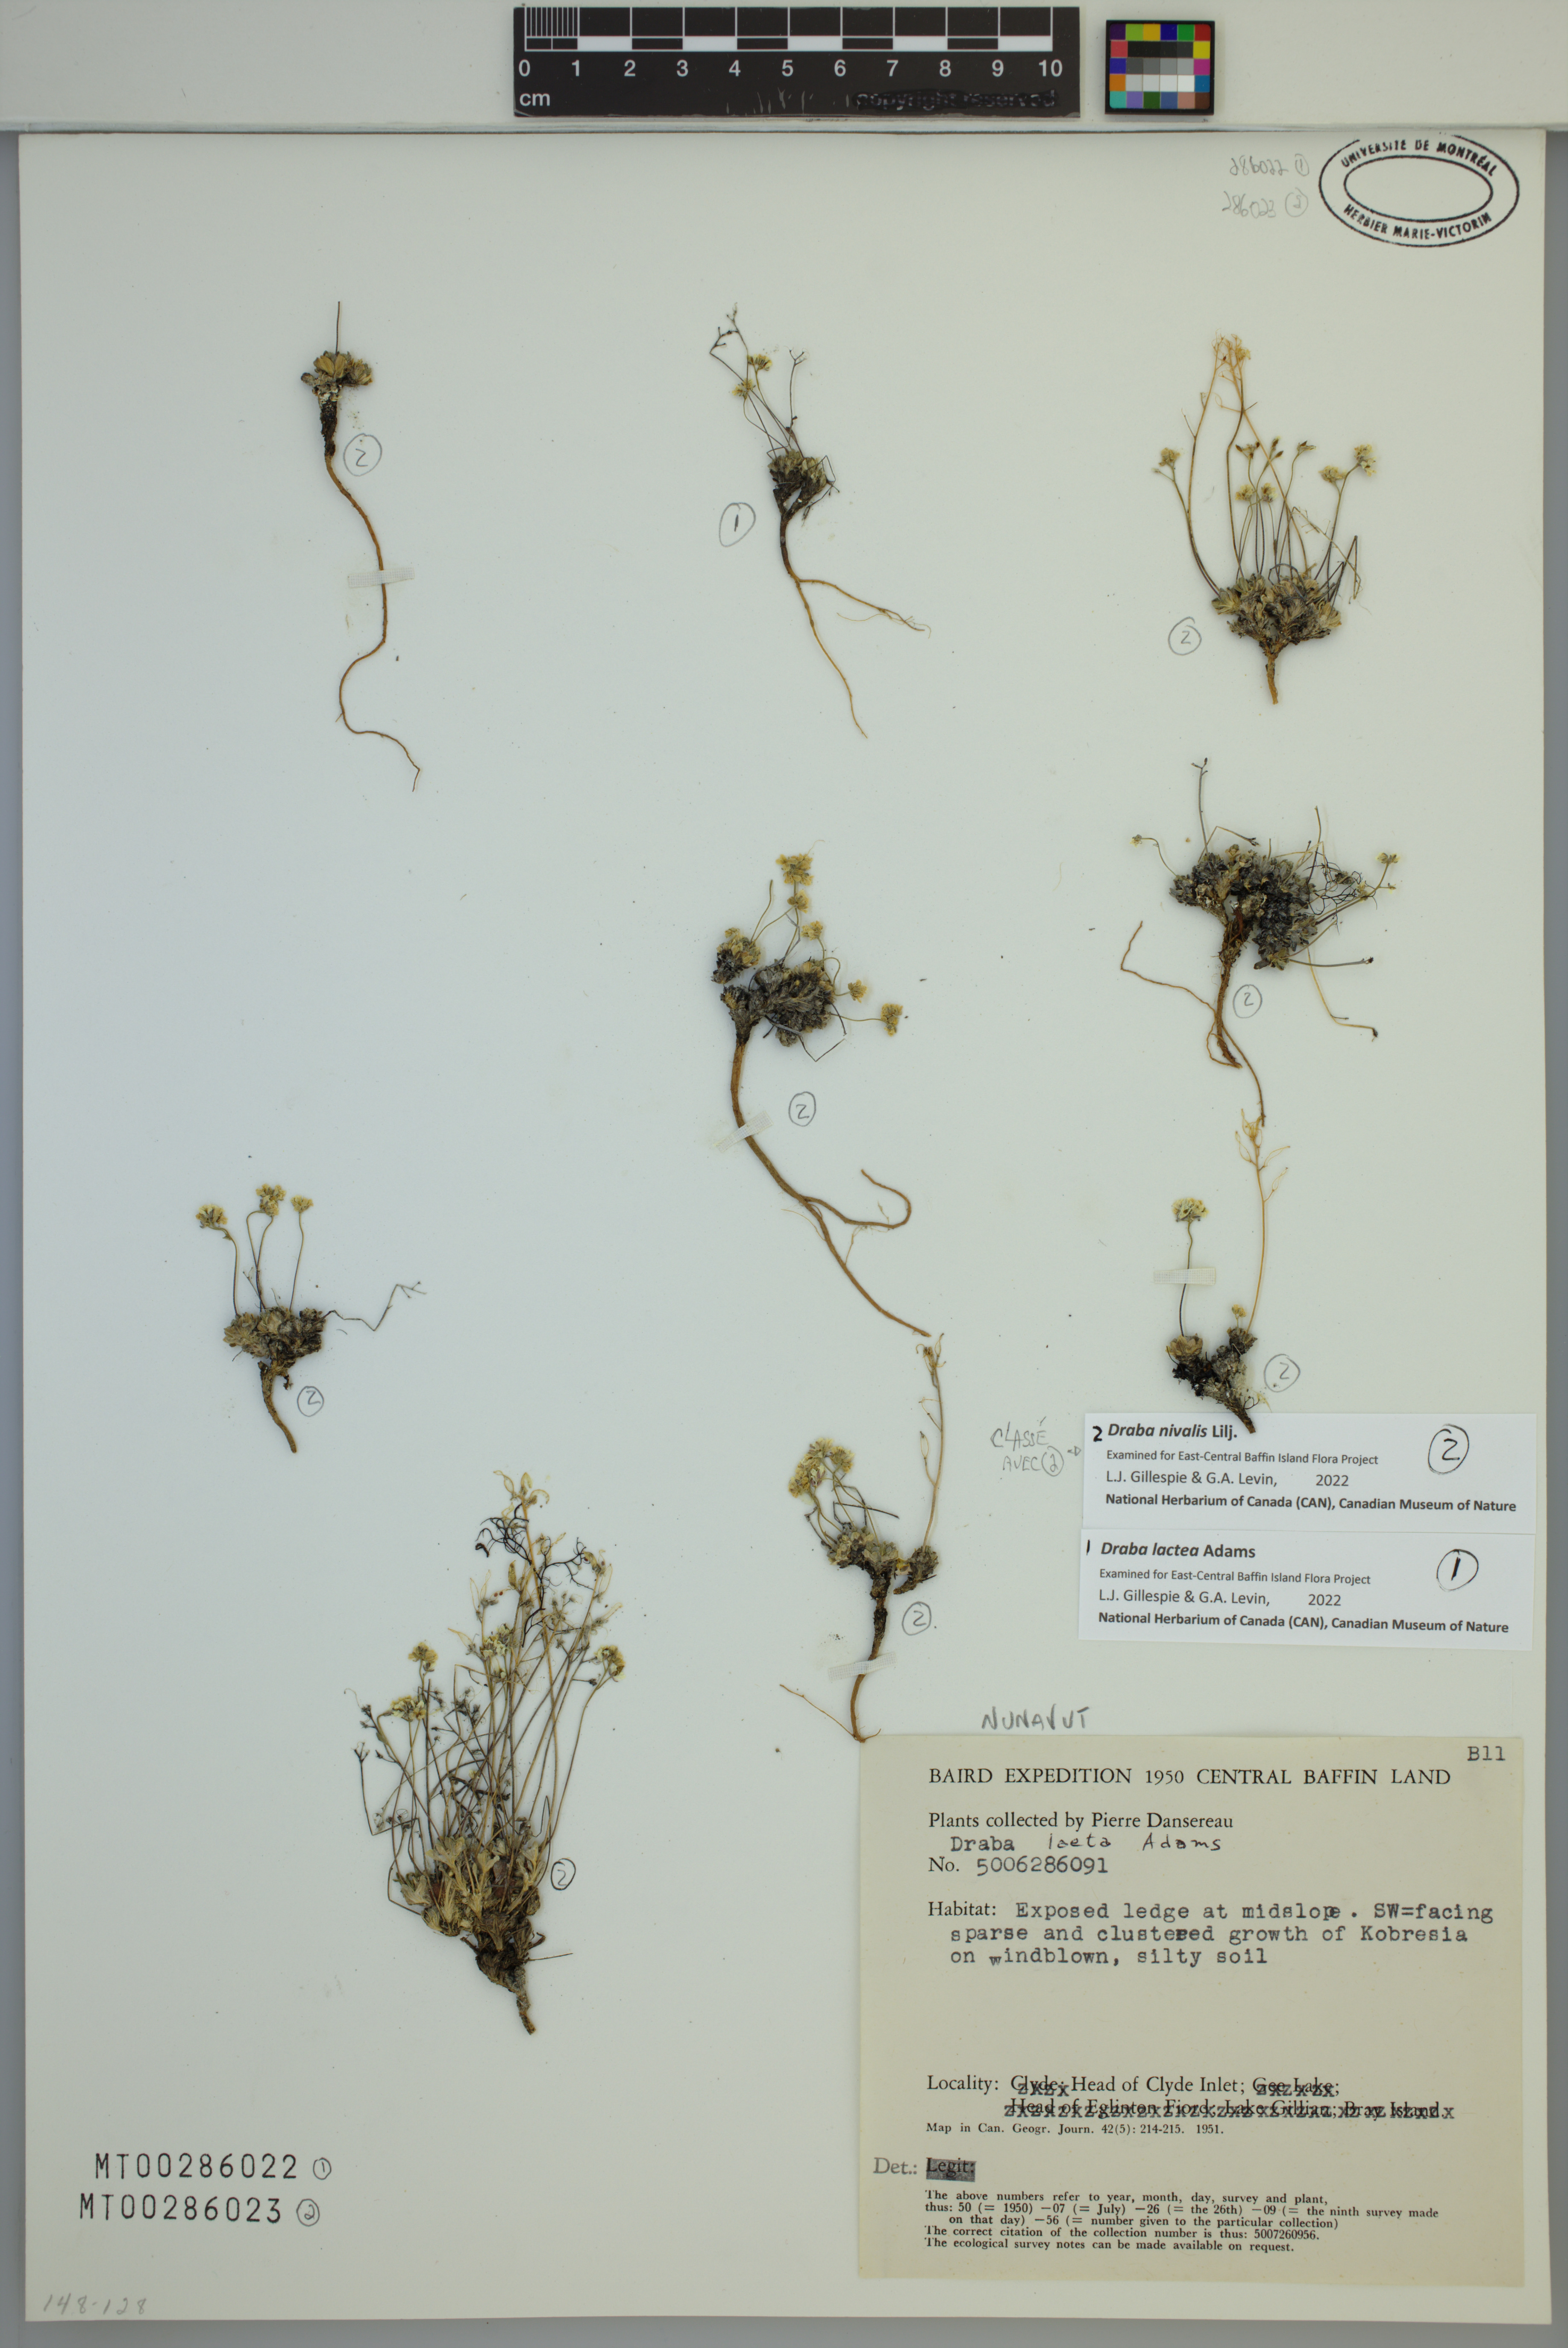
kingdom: Plantae
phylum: Tracheophyta
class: Magnoliopsida
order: Brassicales
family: Brassicaceae
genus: Draba
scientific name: Draba lactea
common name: Milky draba
